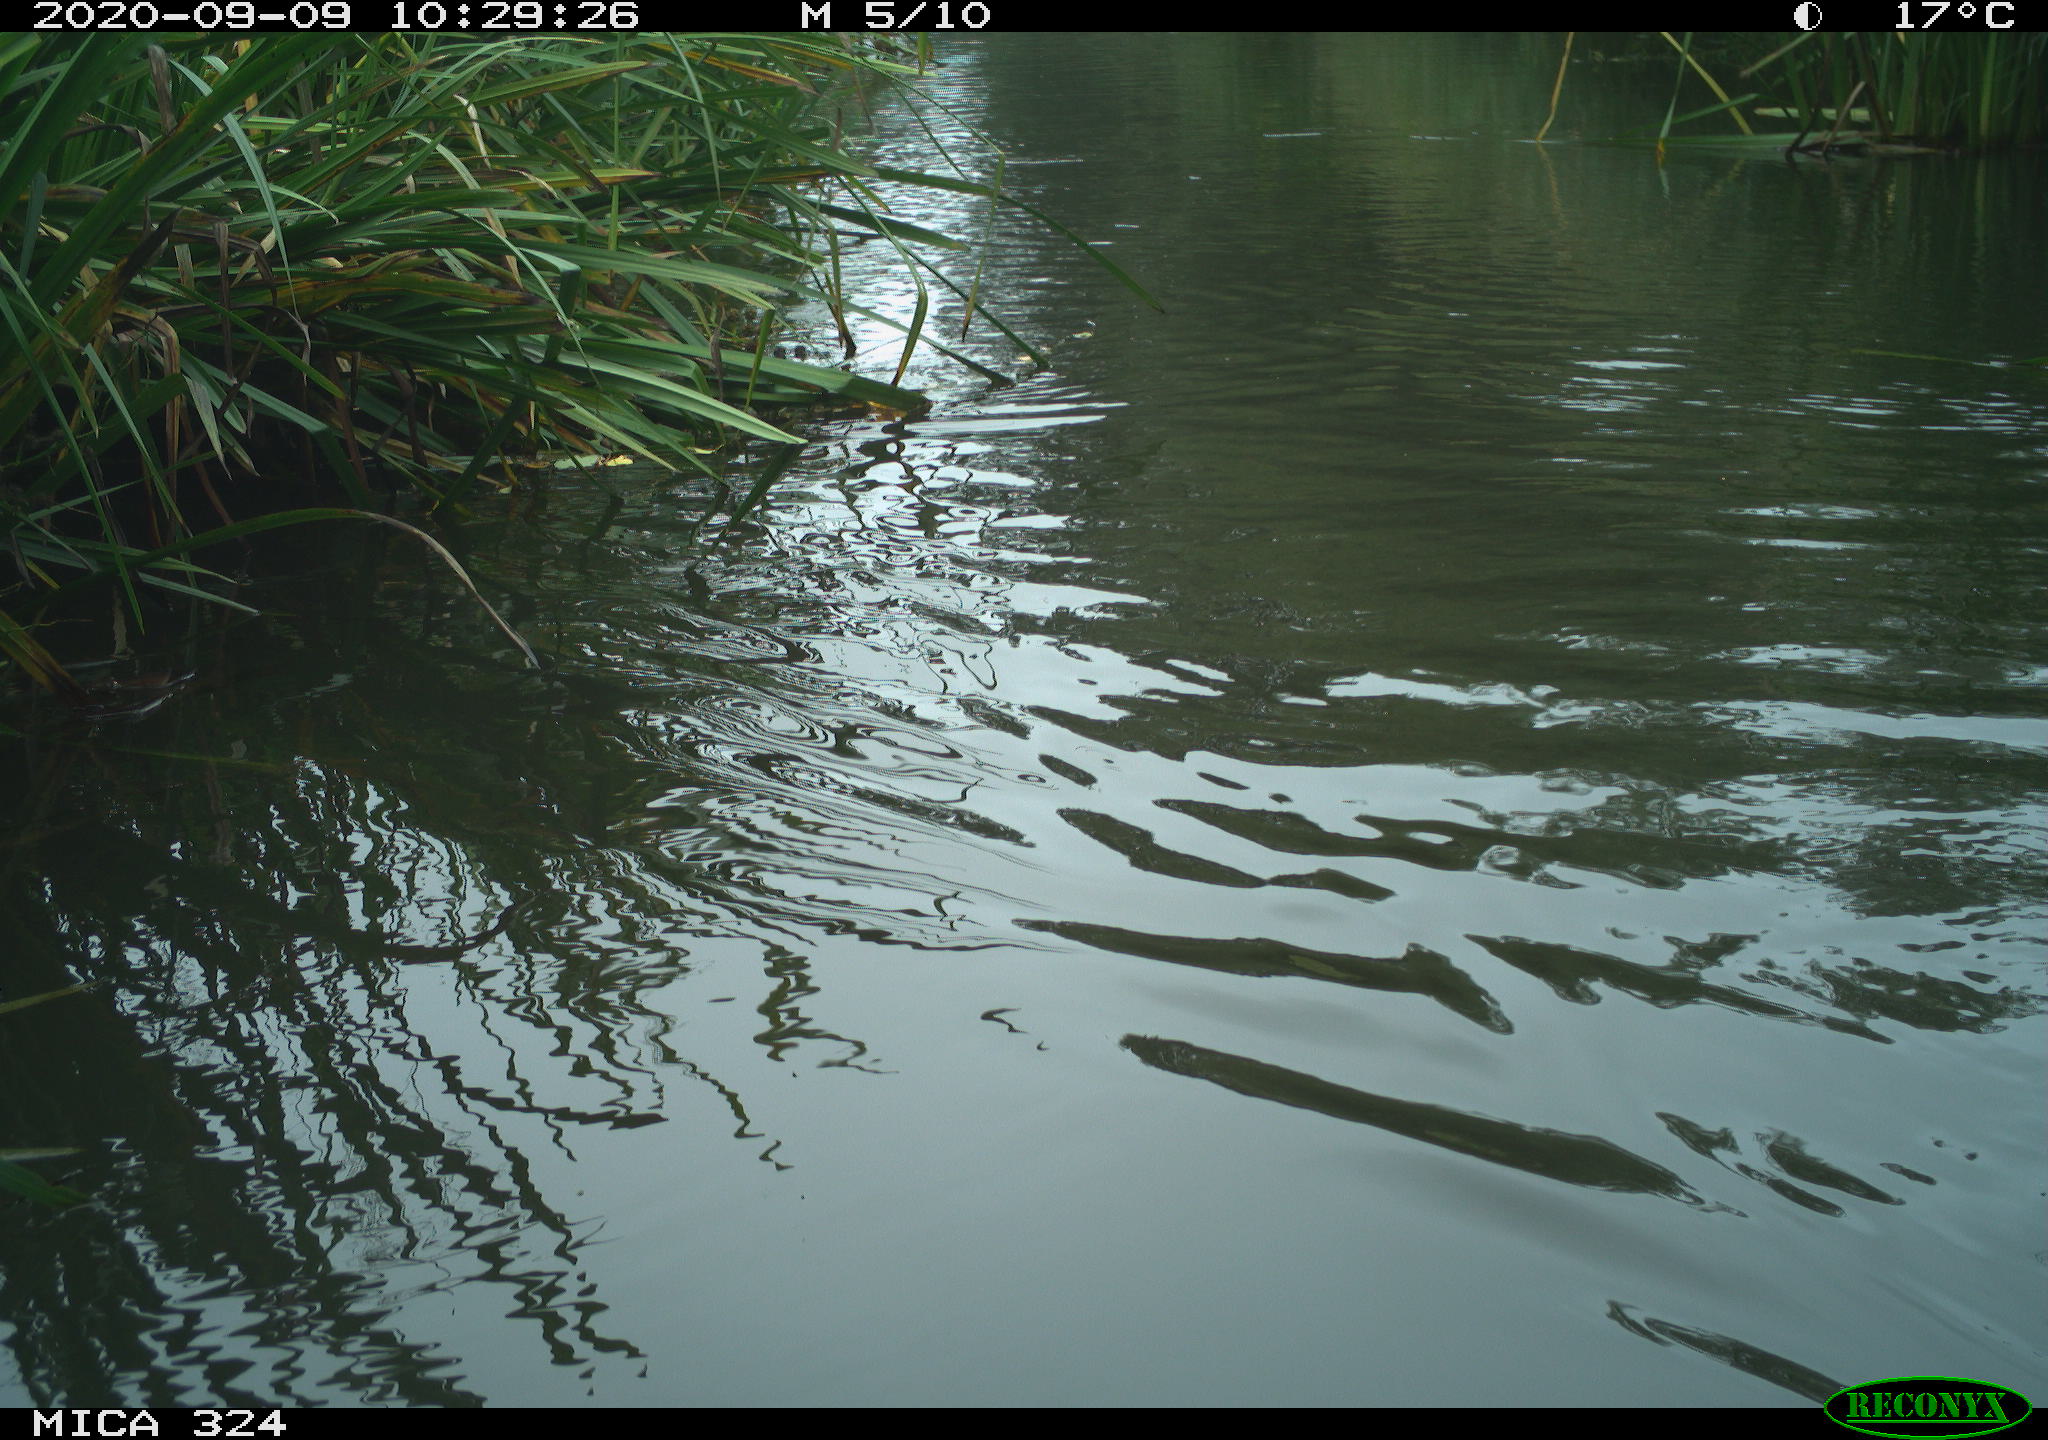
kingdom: Animalia
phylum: Chordata
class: Mammalia
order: Rodentia
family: Cricetidae
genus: Ondatra
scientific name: Ondatra zibethicus
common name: Muskrat
